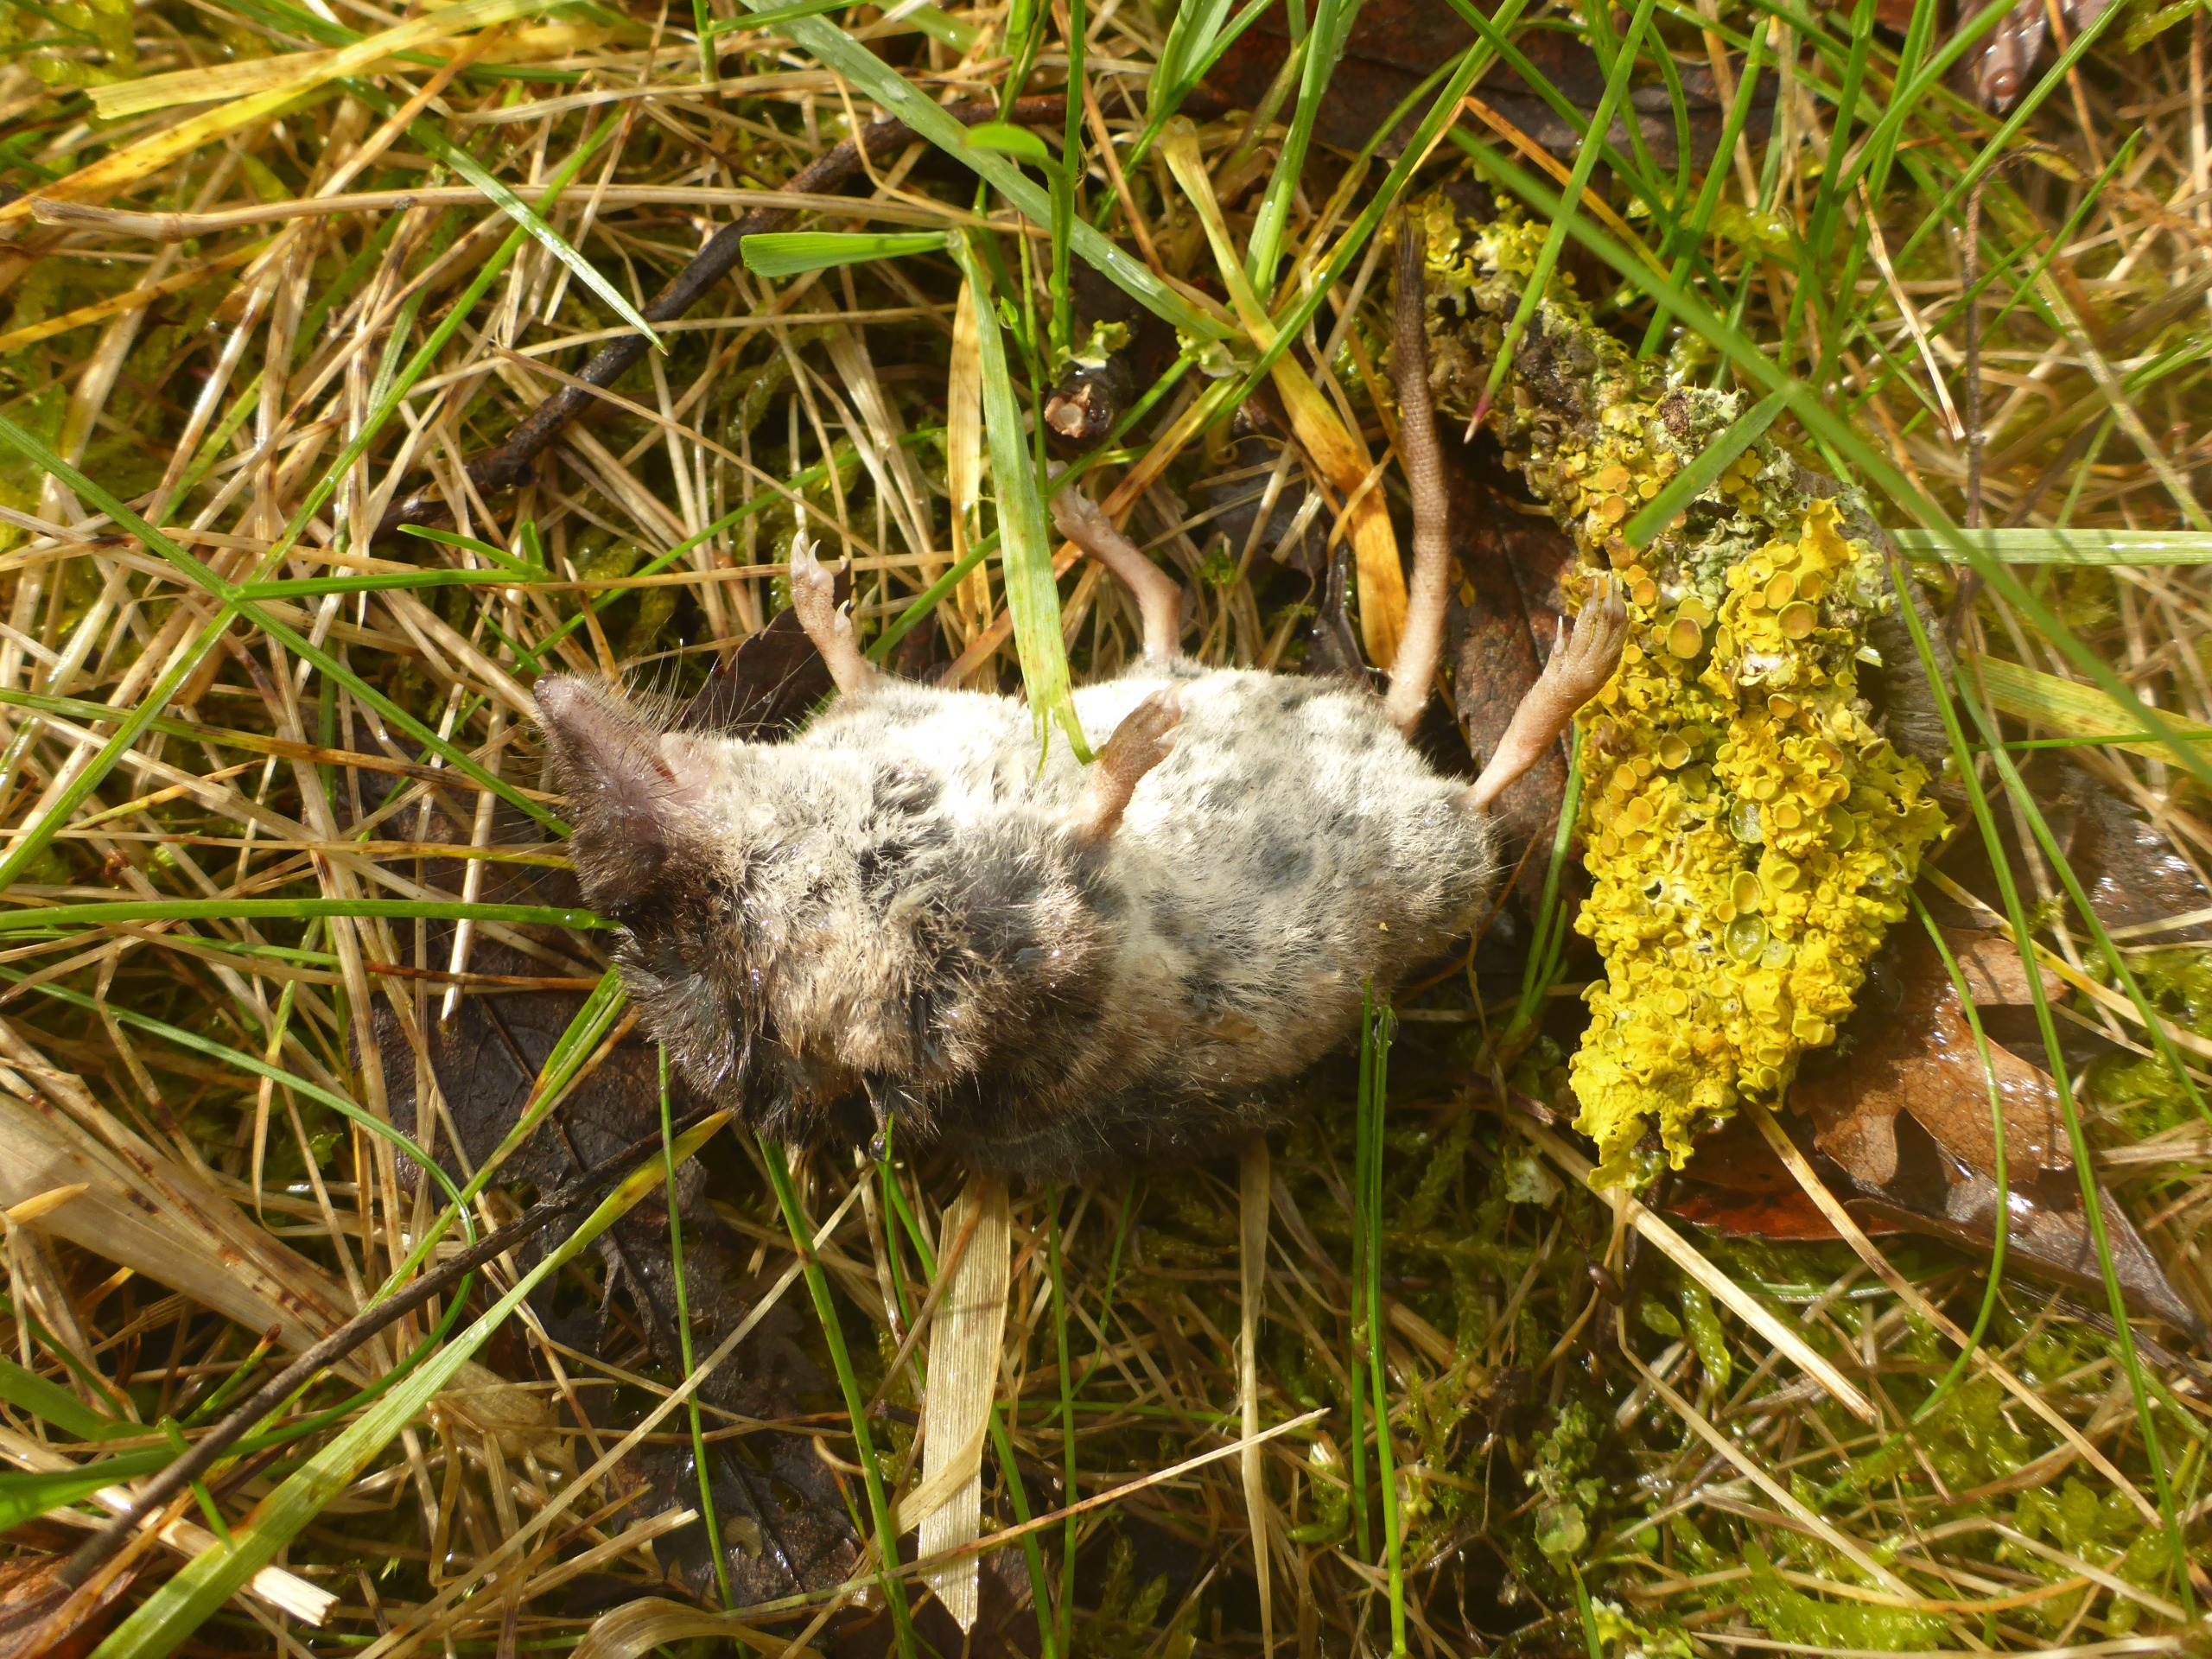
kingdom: Animalia
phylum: Chordata
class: Mammalia
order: Soricomorpha
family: Soricidae
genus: Sorex
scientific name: Sorex araneus
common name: Almindelig spidsmus
